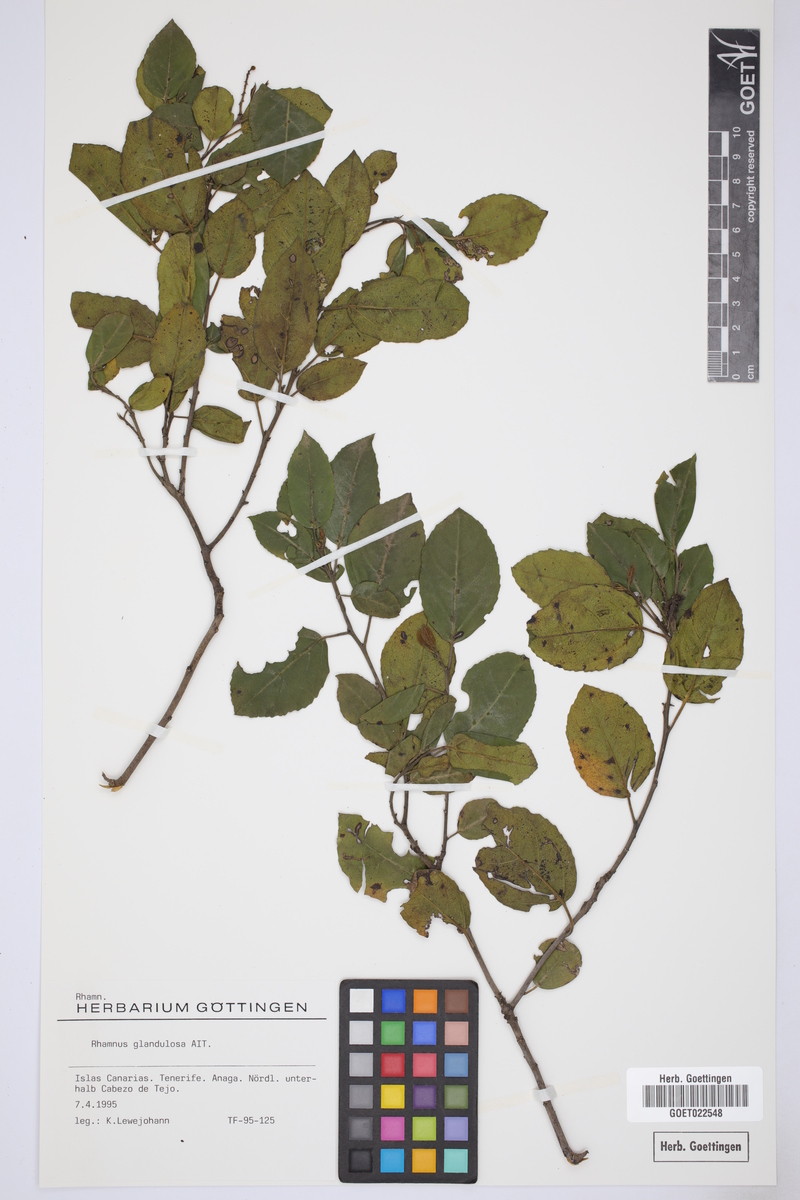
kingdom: Plantae
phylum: Tracheophyta
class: Magnoliopsida
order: Rosales
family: Rhamnaceae
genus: Rhamnus
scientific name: Rhamnus glandulosa
